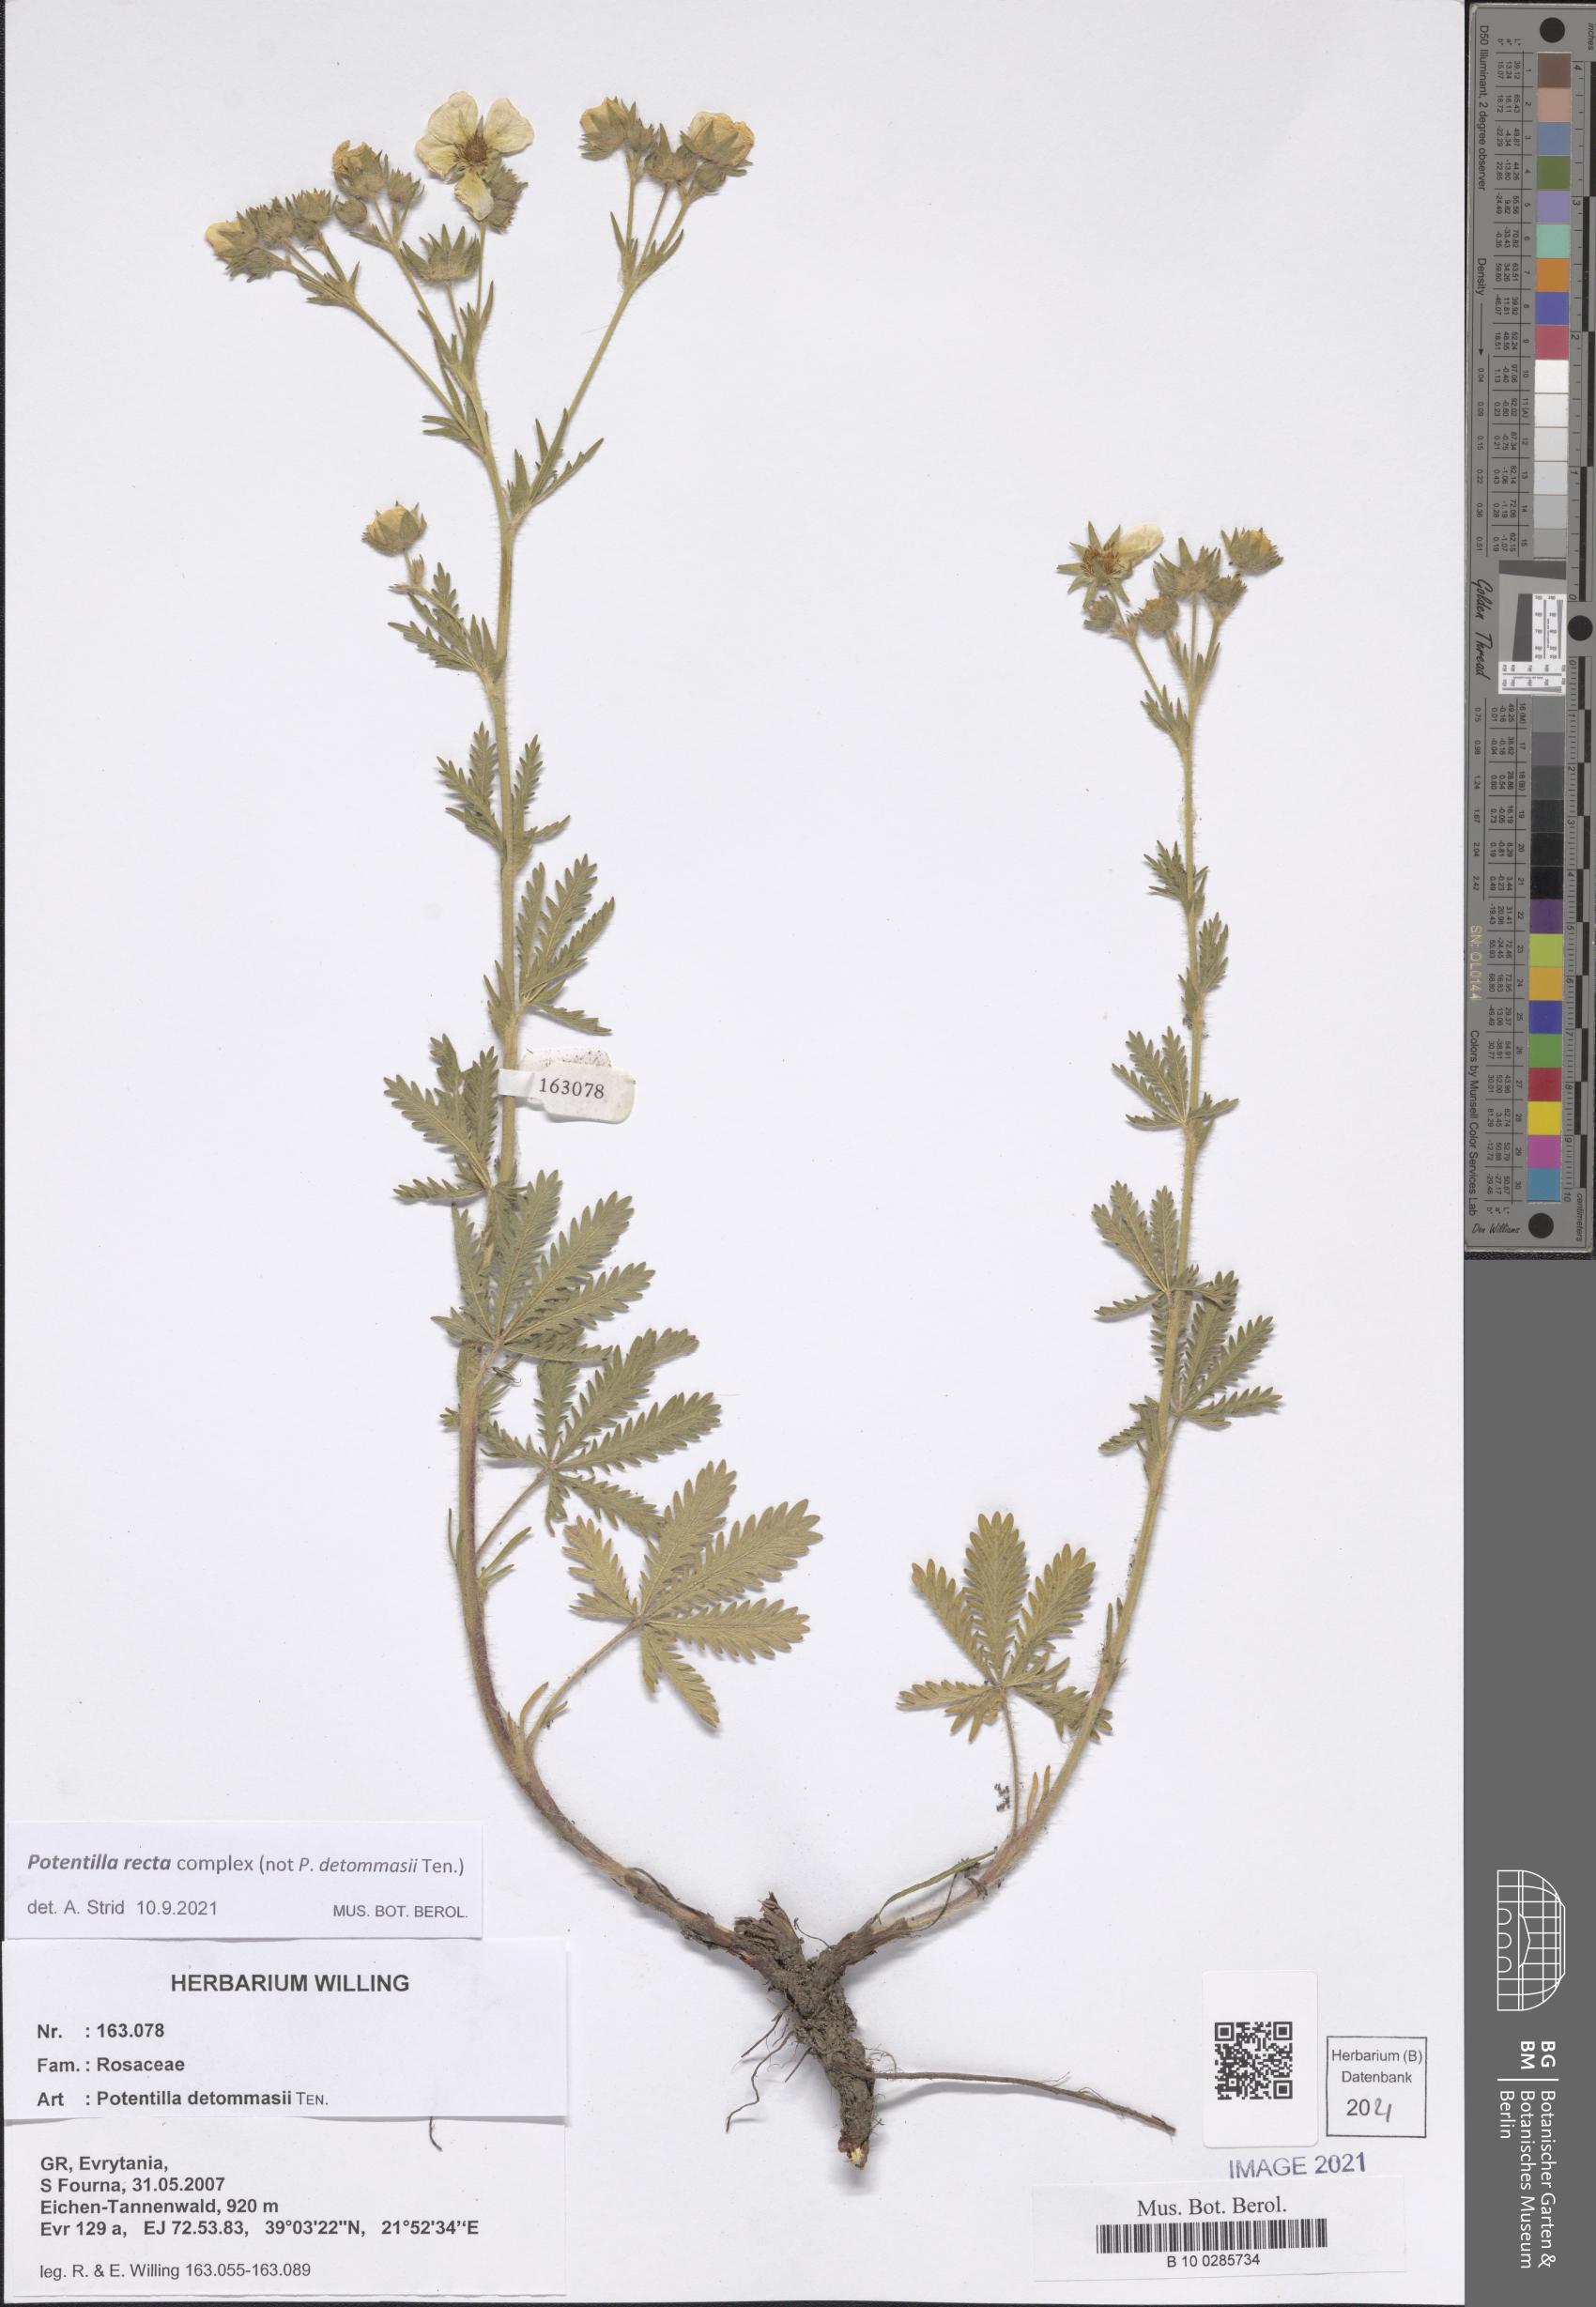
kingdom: Plantae
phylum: Tracheophyta
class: Magnoliopsida
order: Rosales
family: Rosaceae
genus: Potentilla
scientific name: Potentilla recta
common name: Sulphur cinquefoil
